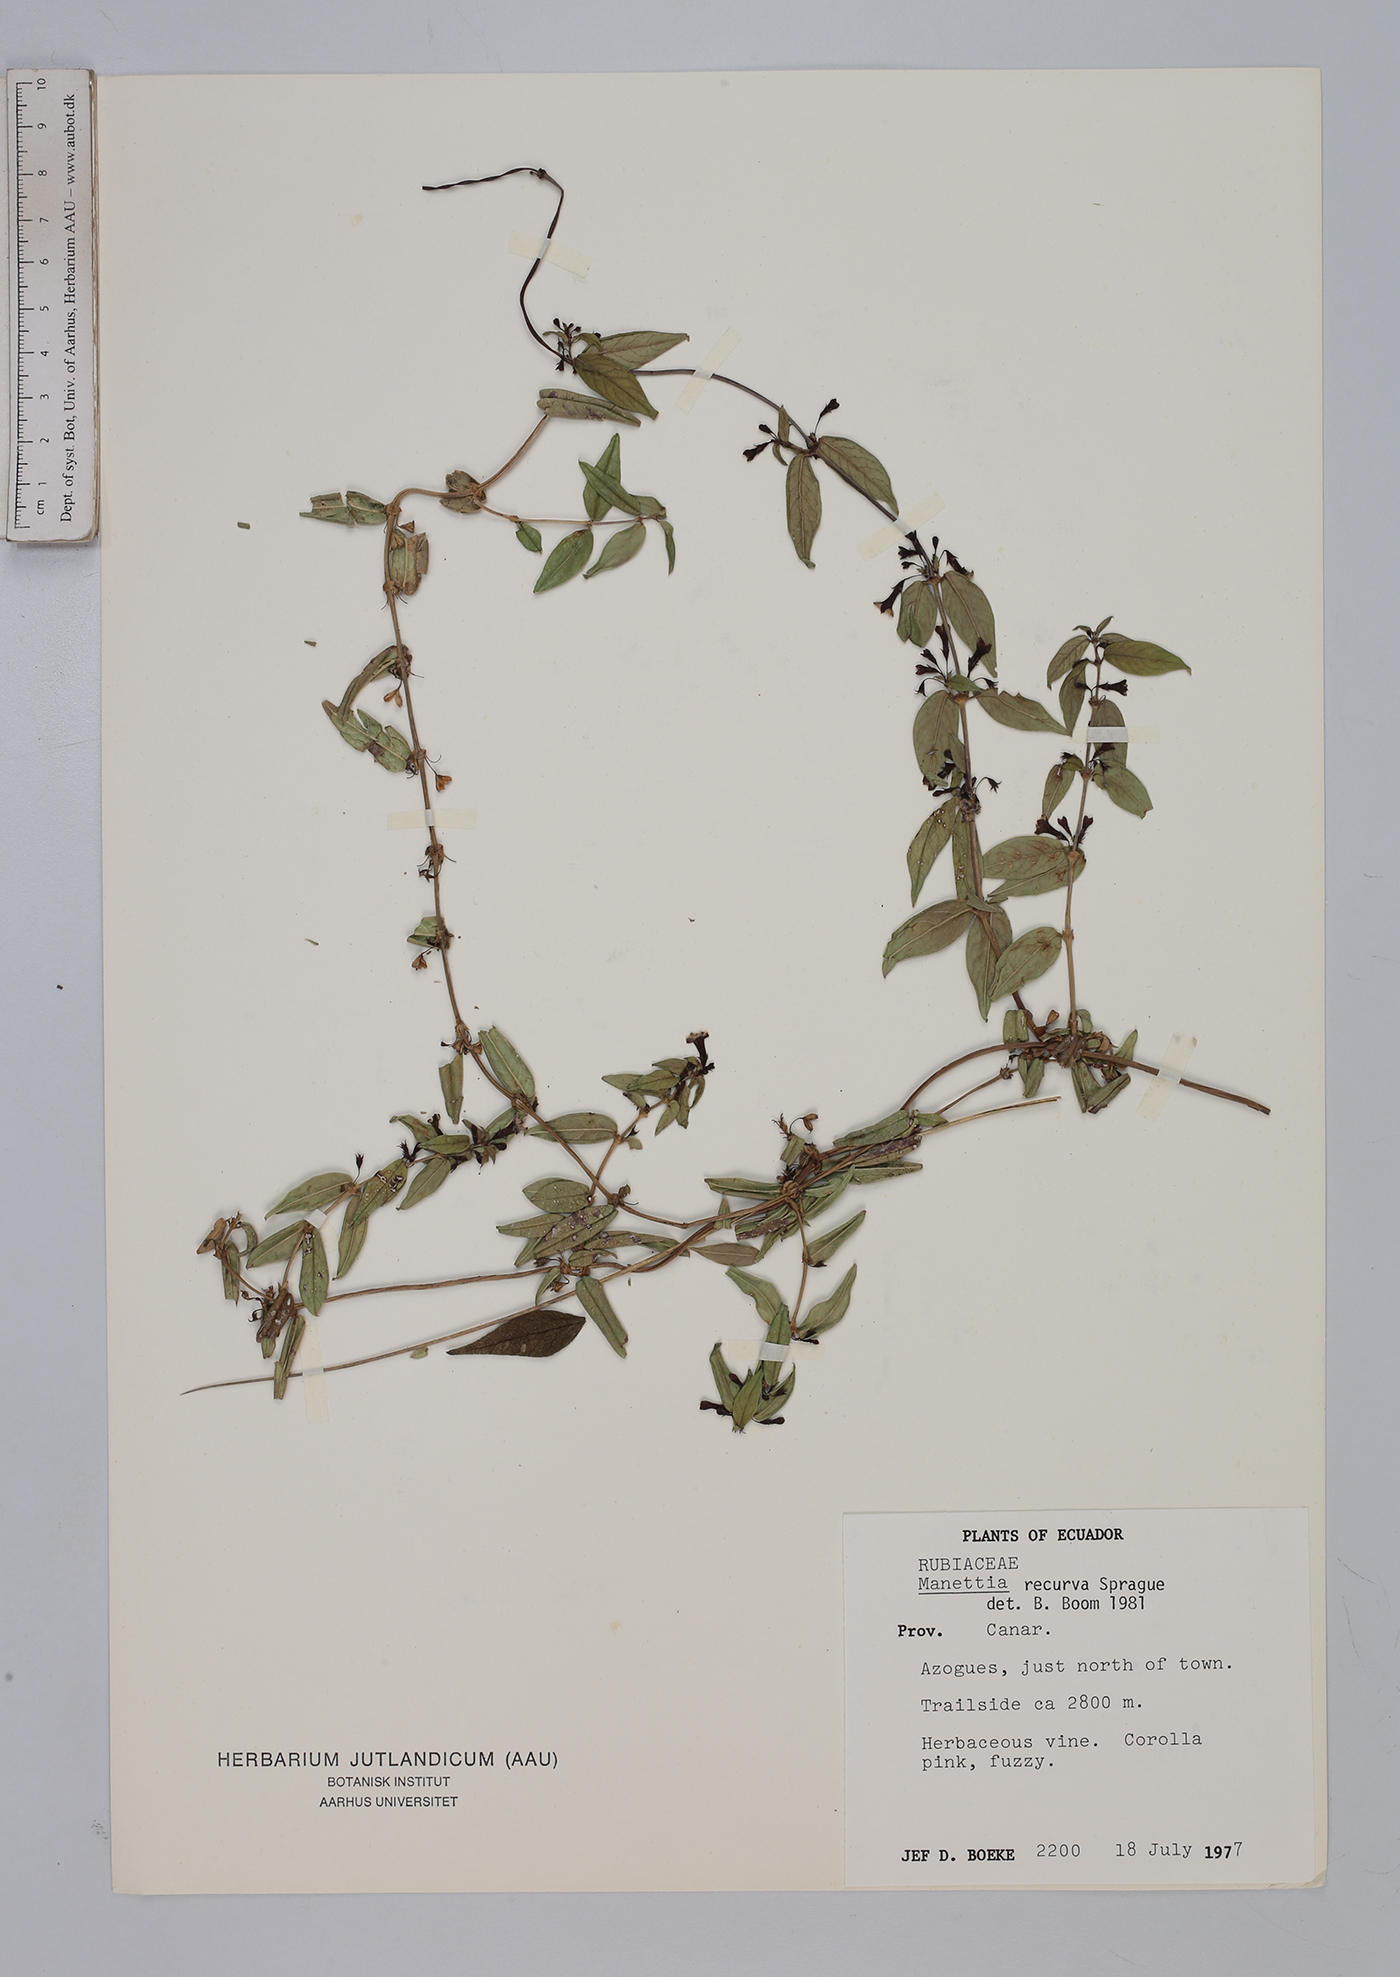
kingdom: Plantae
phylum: Tracheophyta
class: Magnoliopsida
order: Gentianales
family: Rubiaceae
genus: Manettia
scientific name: Manettia recurva
